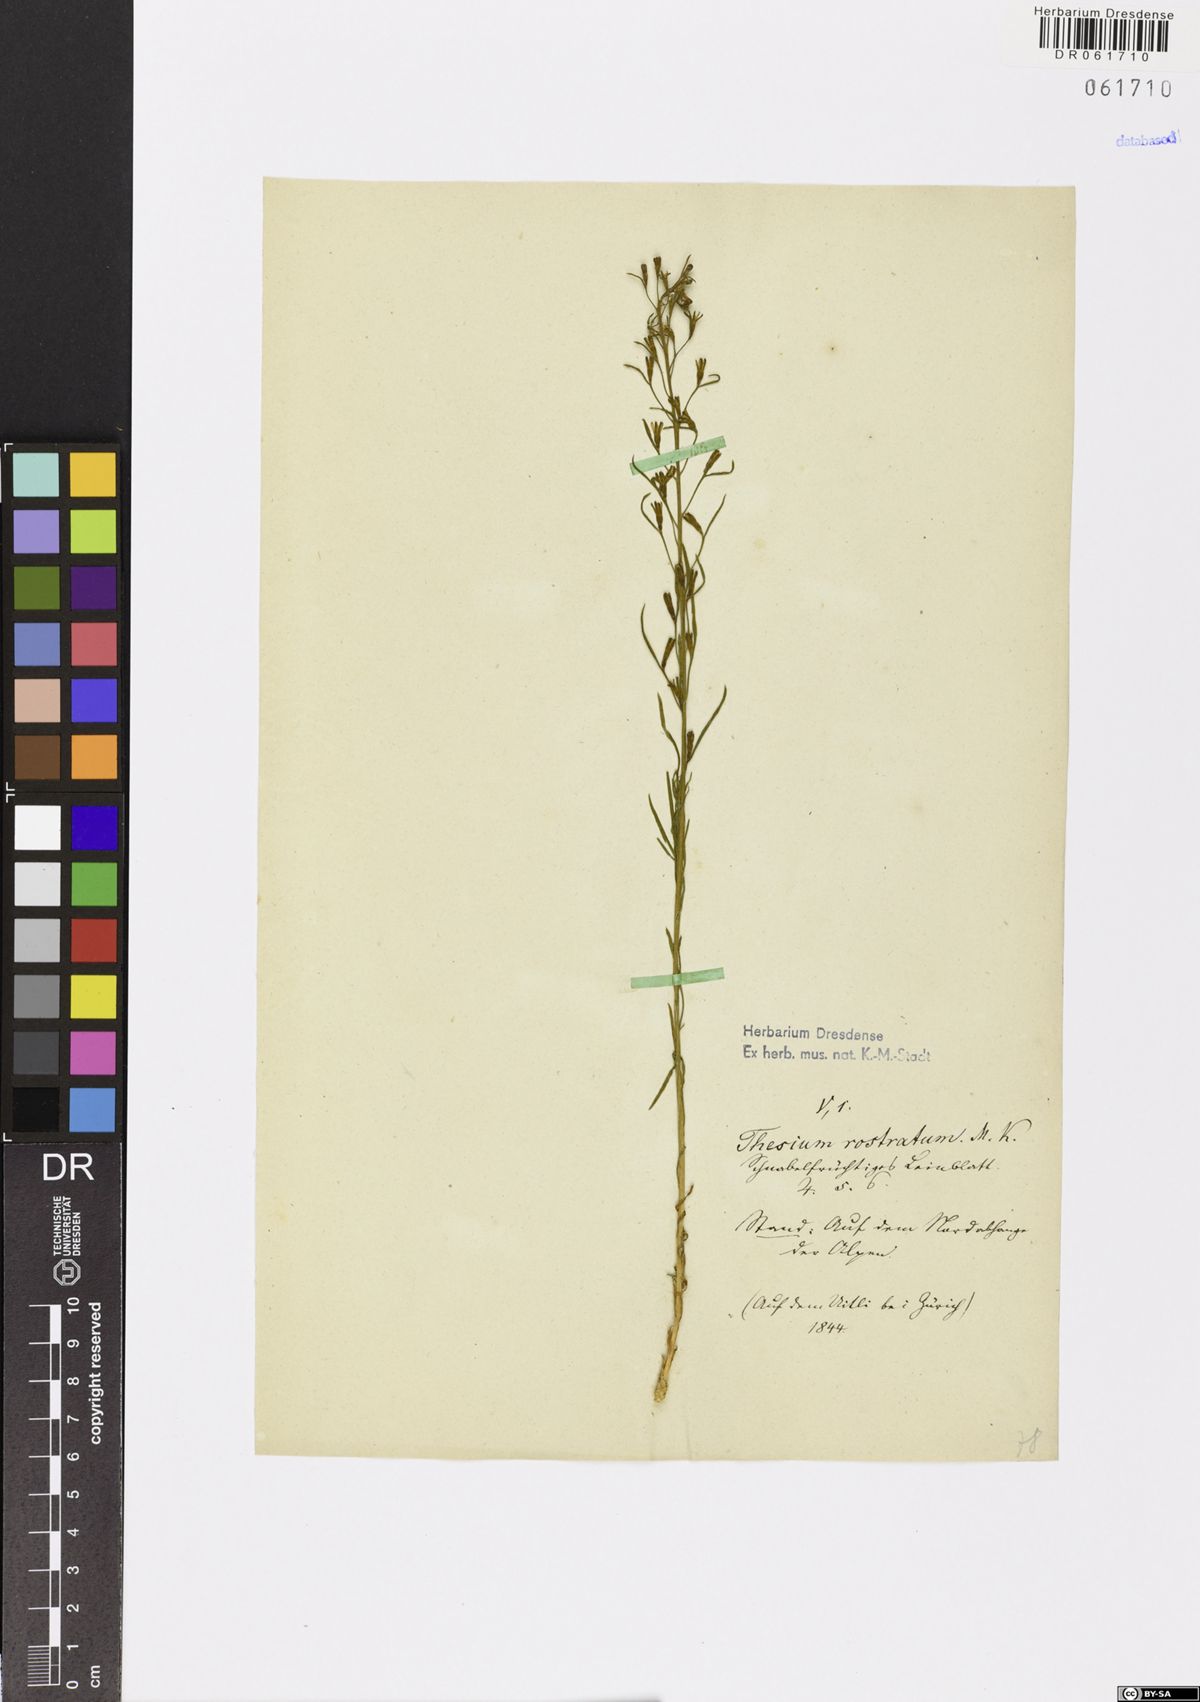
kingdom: Plantae
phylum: Tracheophyta
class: Magnoliopsida
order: Santalales
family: Thesiaceae
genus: Thesium
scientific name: Thesium rostratum
